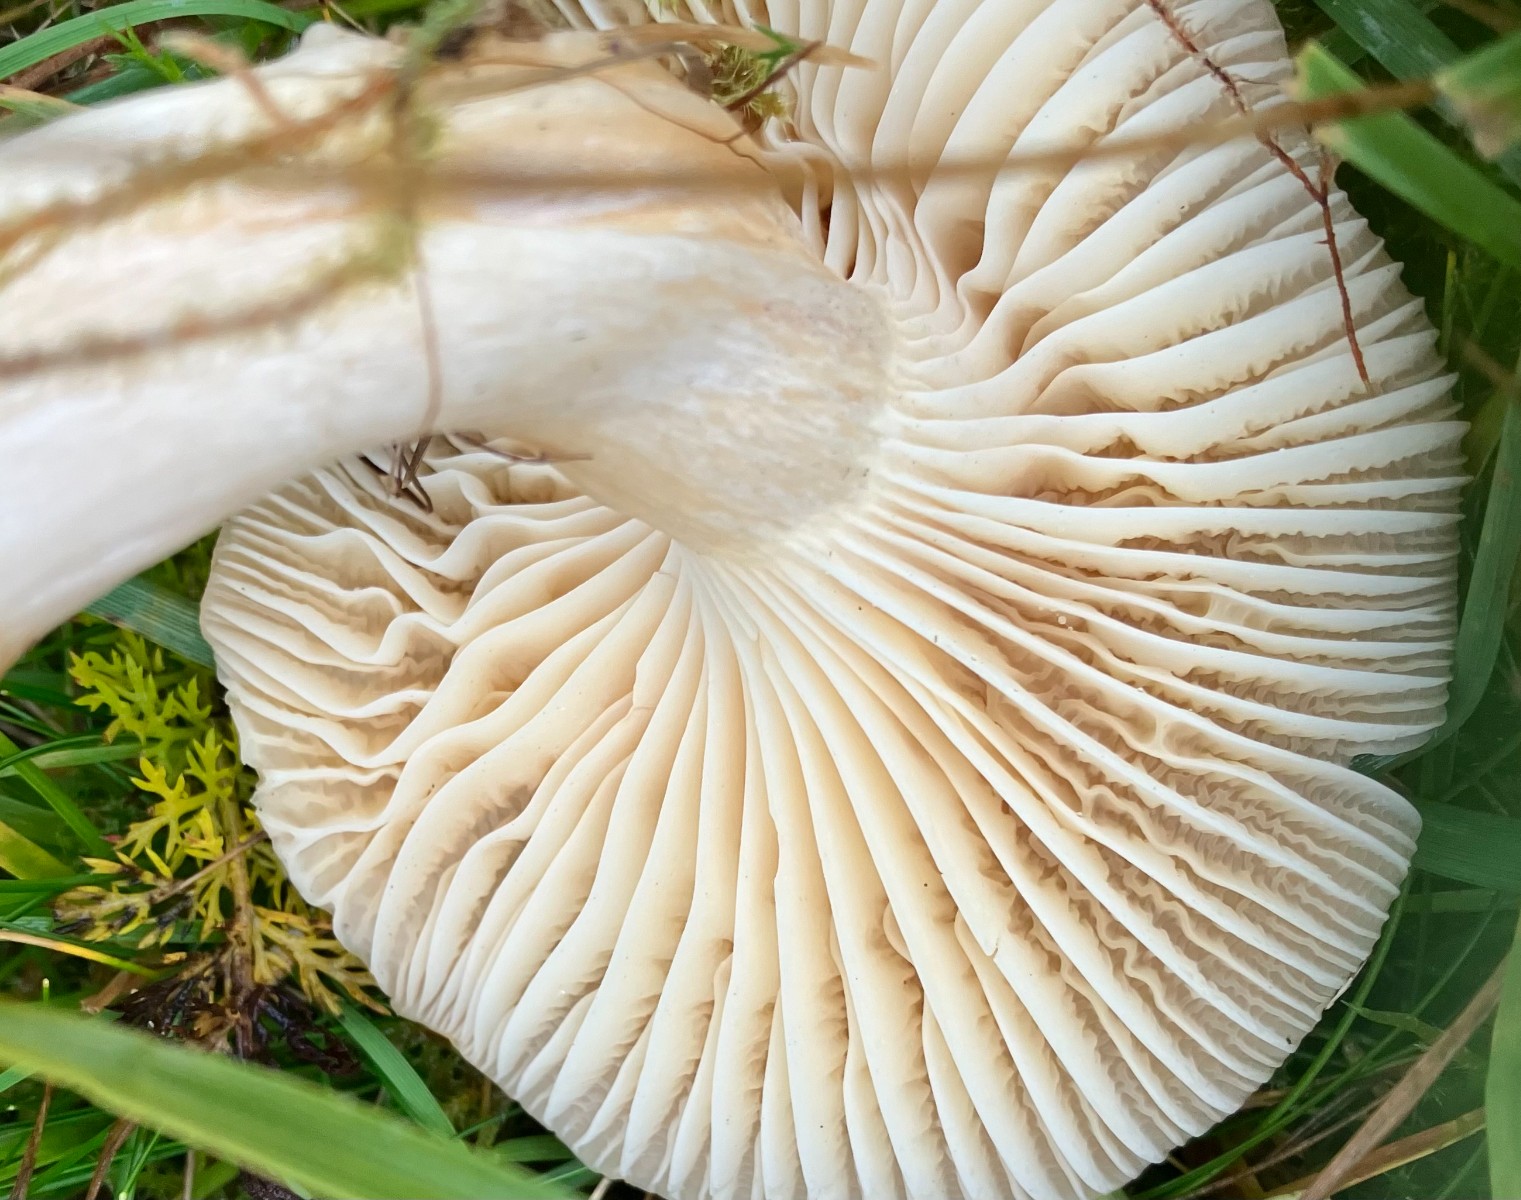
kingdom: Fungi
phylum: Basidiomycota
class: Agaricomycetes
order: Agaricales
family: Hygrophoraceae
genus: Cuphophyllus
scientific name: Cuphophyllus pratensis
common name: eng-vokshat
